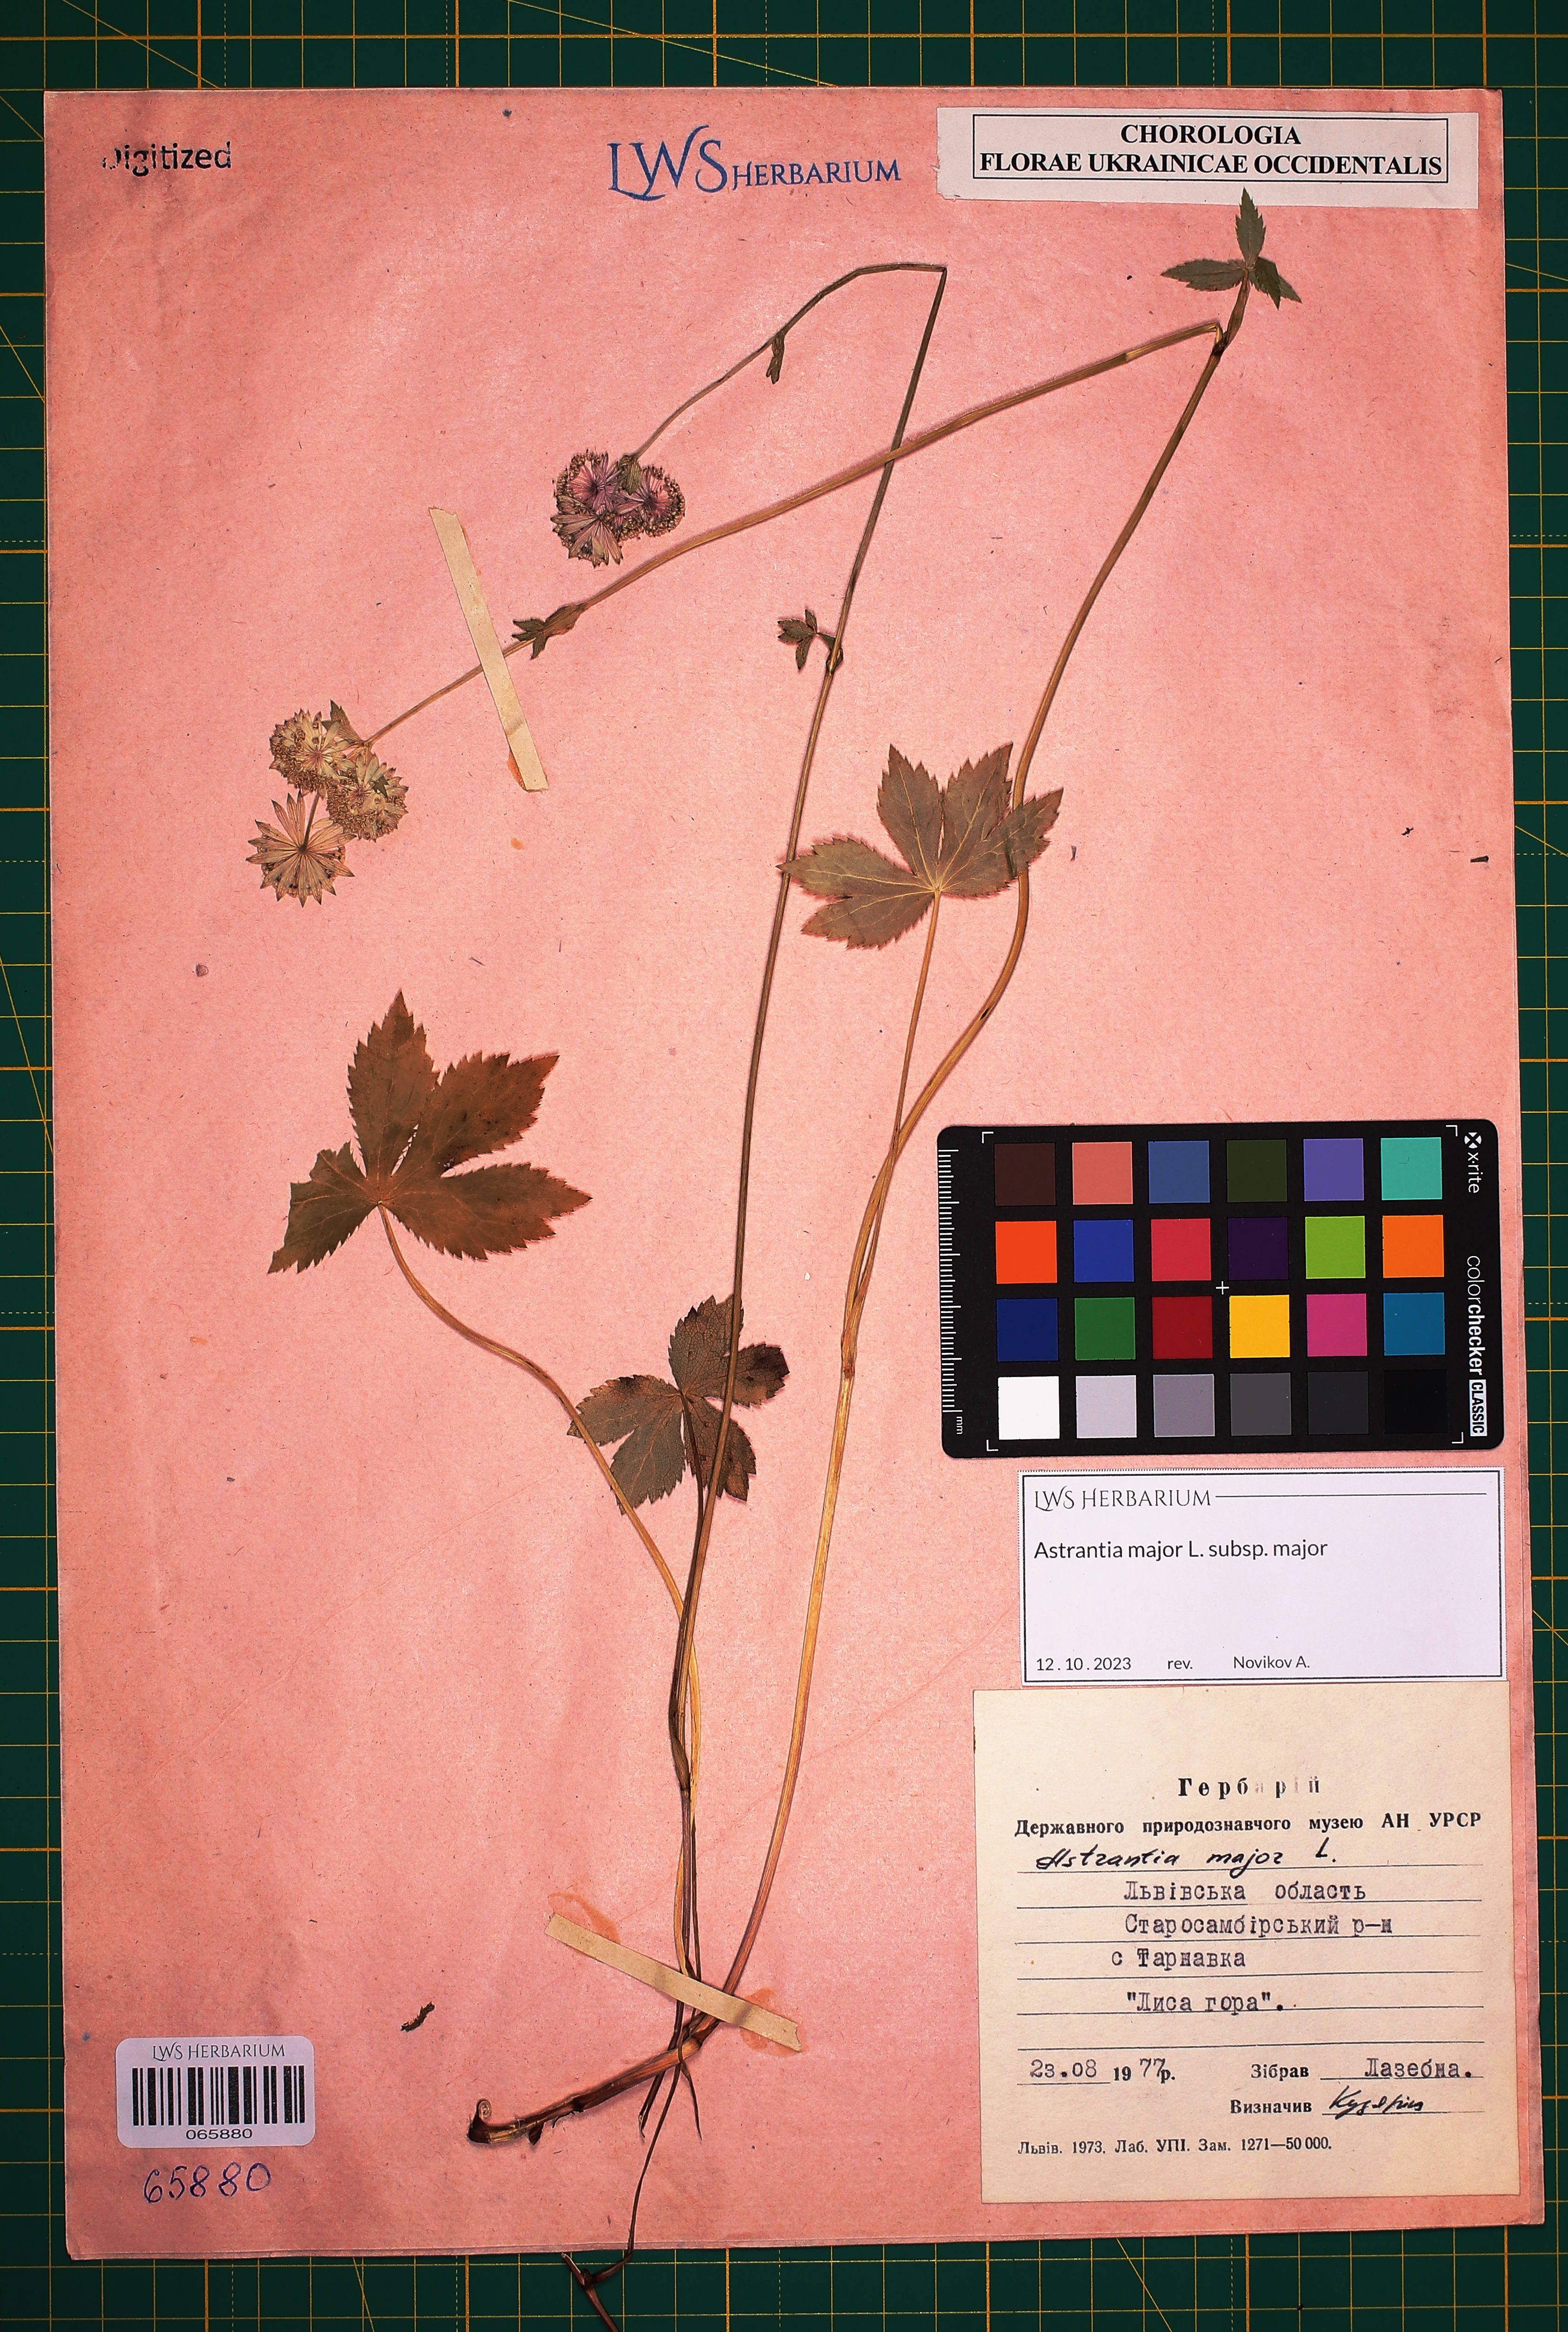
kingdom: Plantae
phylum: Tracheophyta
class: Magnoliopsida
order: Apiales
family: Apiaceae
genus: Astrantia
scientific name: Astrantia major
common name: Greater masterwort
